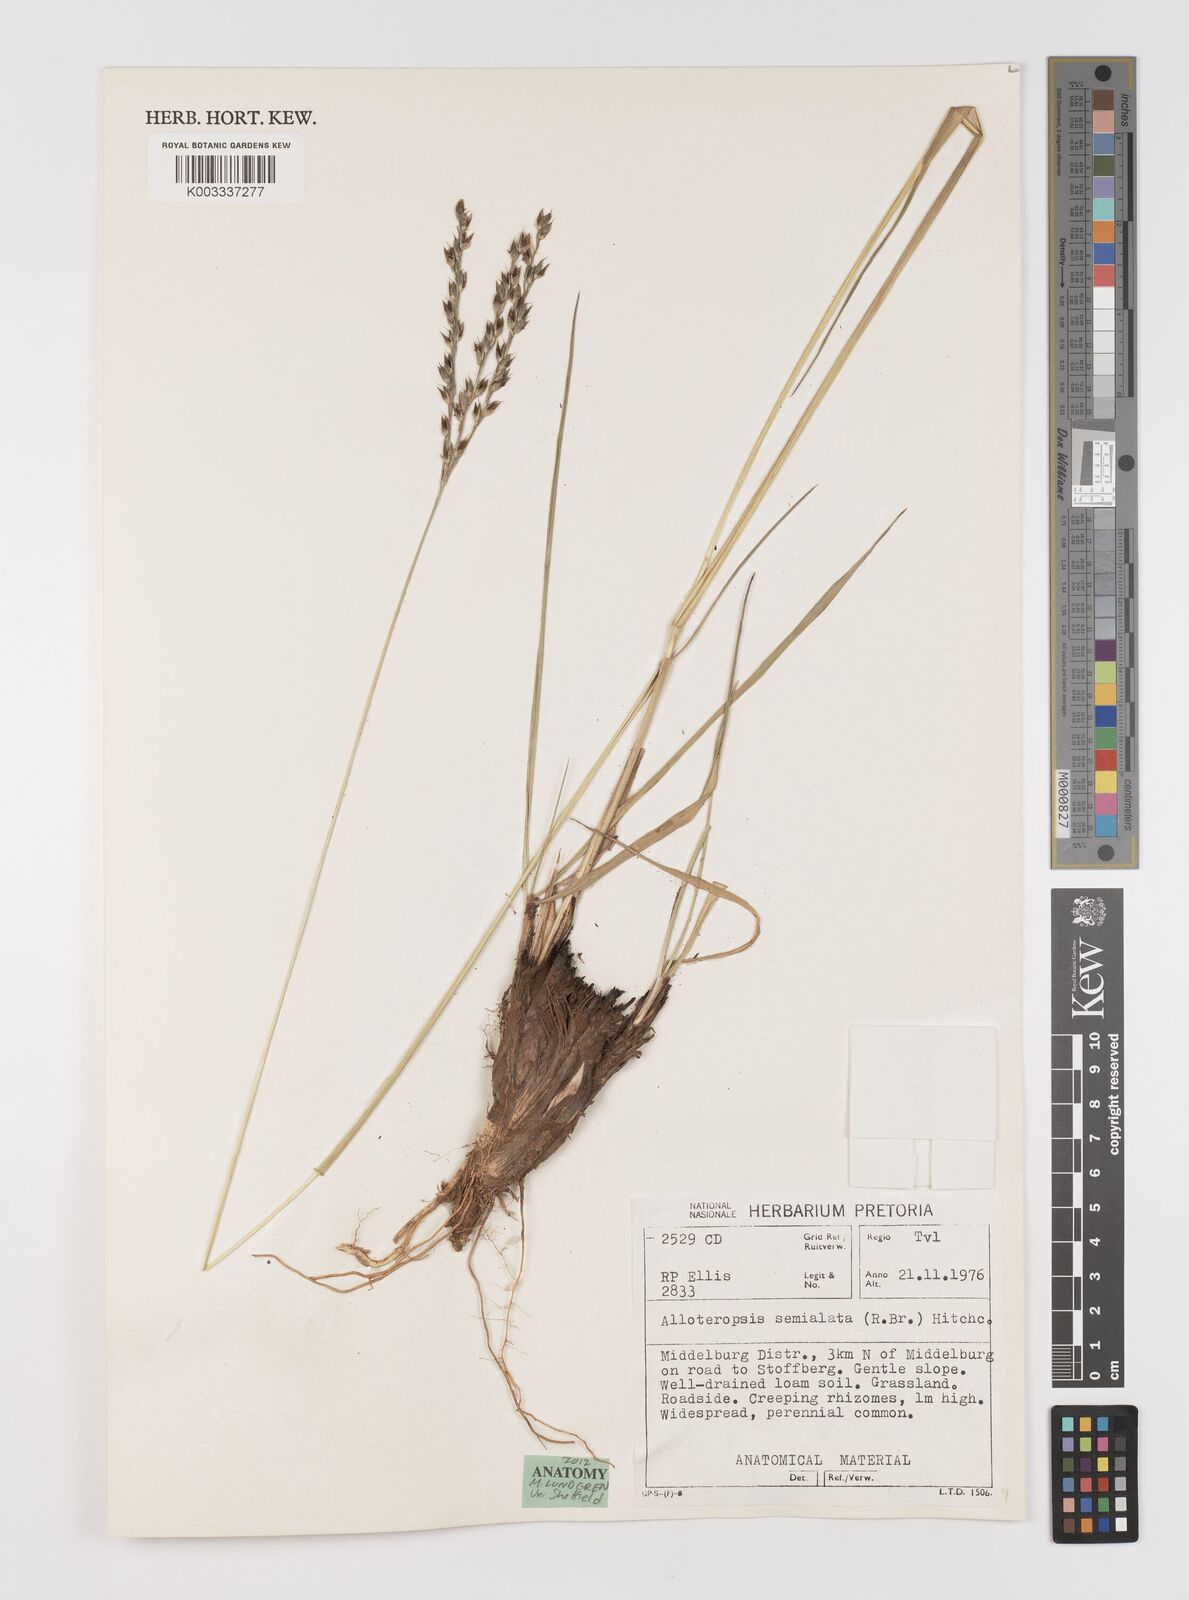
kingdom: Plantae
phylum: Tracheophyta
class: Liliopsida
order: Poales
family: Poaceae
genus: Alloteropsis
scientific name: Alloteropsis semialata
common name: Cockatoo grass
